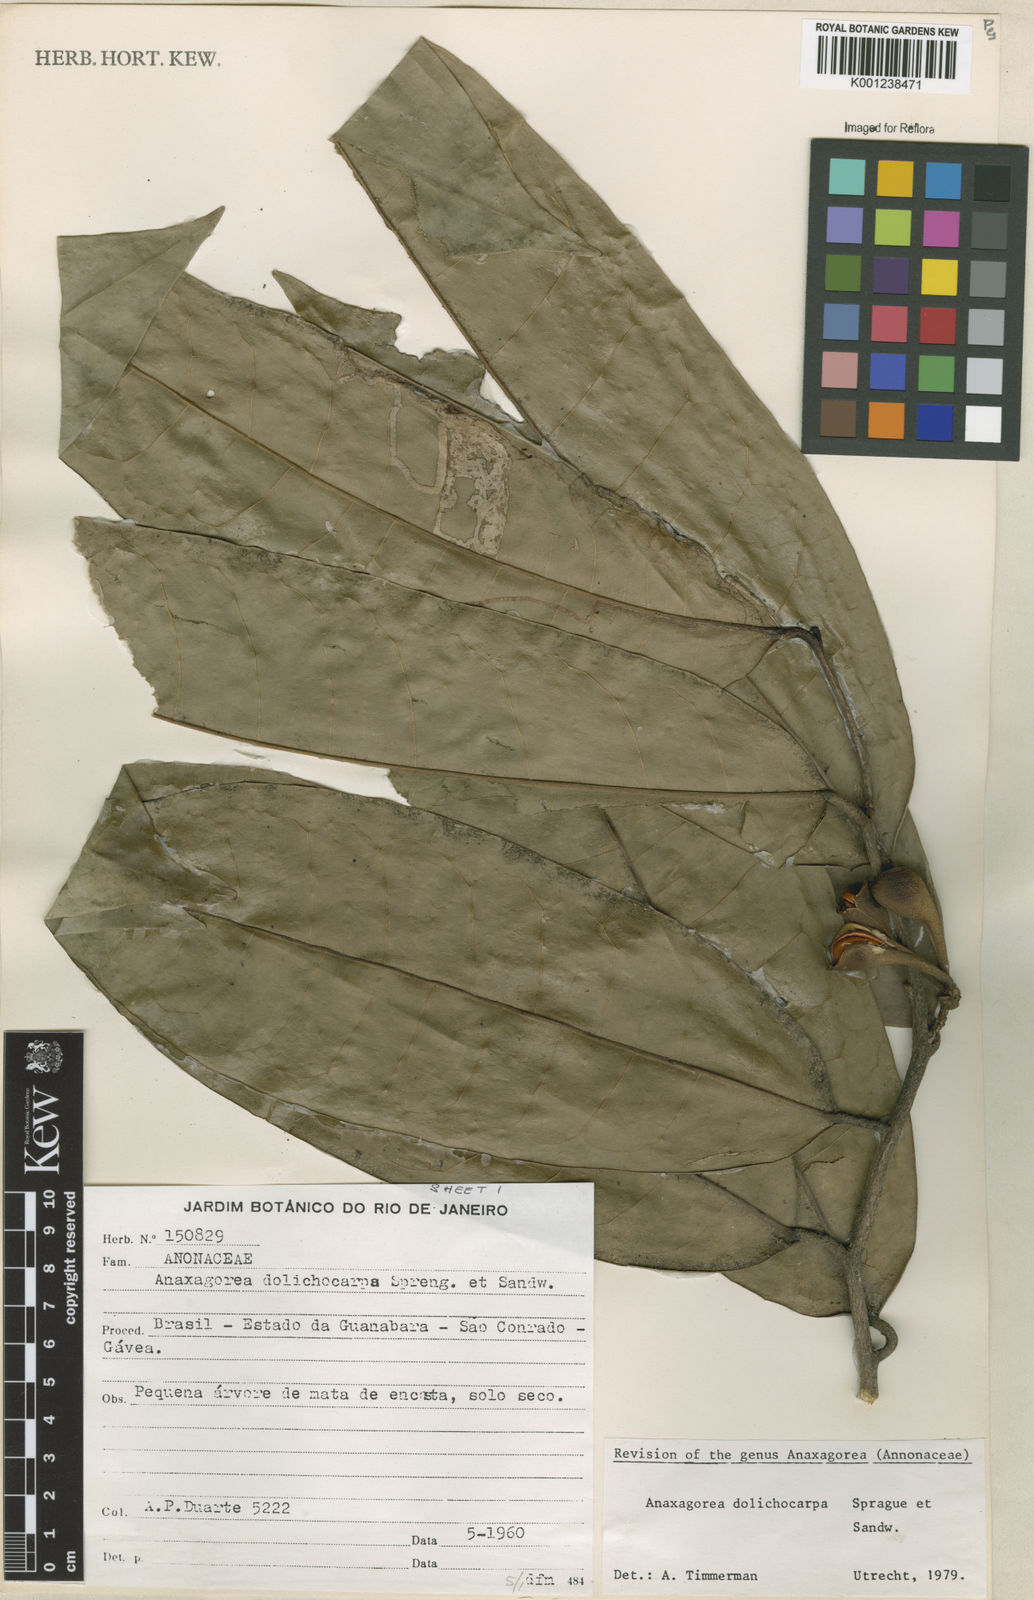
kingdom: Plantae
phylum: Tracheophyta
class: Magnoliopsida
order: Magnoliales
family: Annonaceae
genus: Anaxagorea
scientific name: Anaxagorea dolichocarpa
